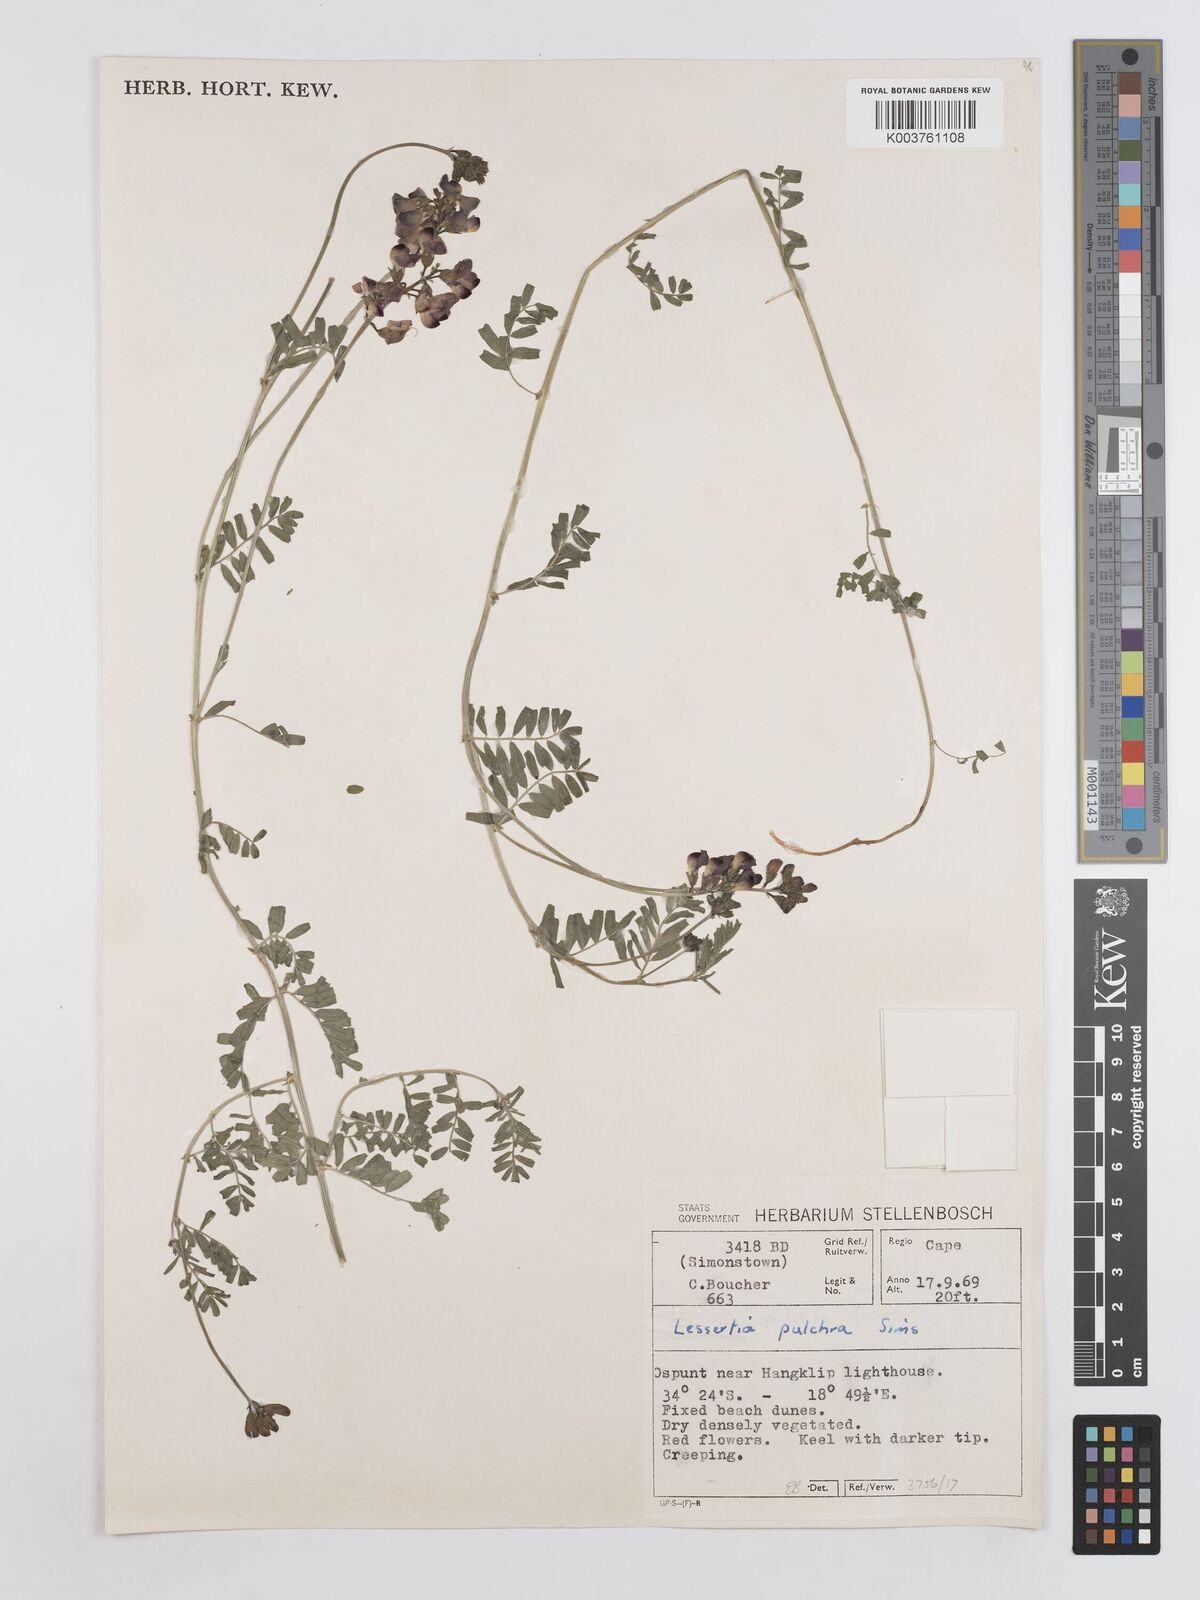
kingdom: Plantae
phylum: Tracheophyta
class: Magnoliopsida
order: Fabales
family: Fabaceae
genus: Lessertia
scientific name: Lessertia capensis
